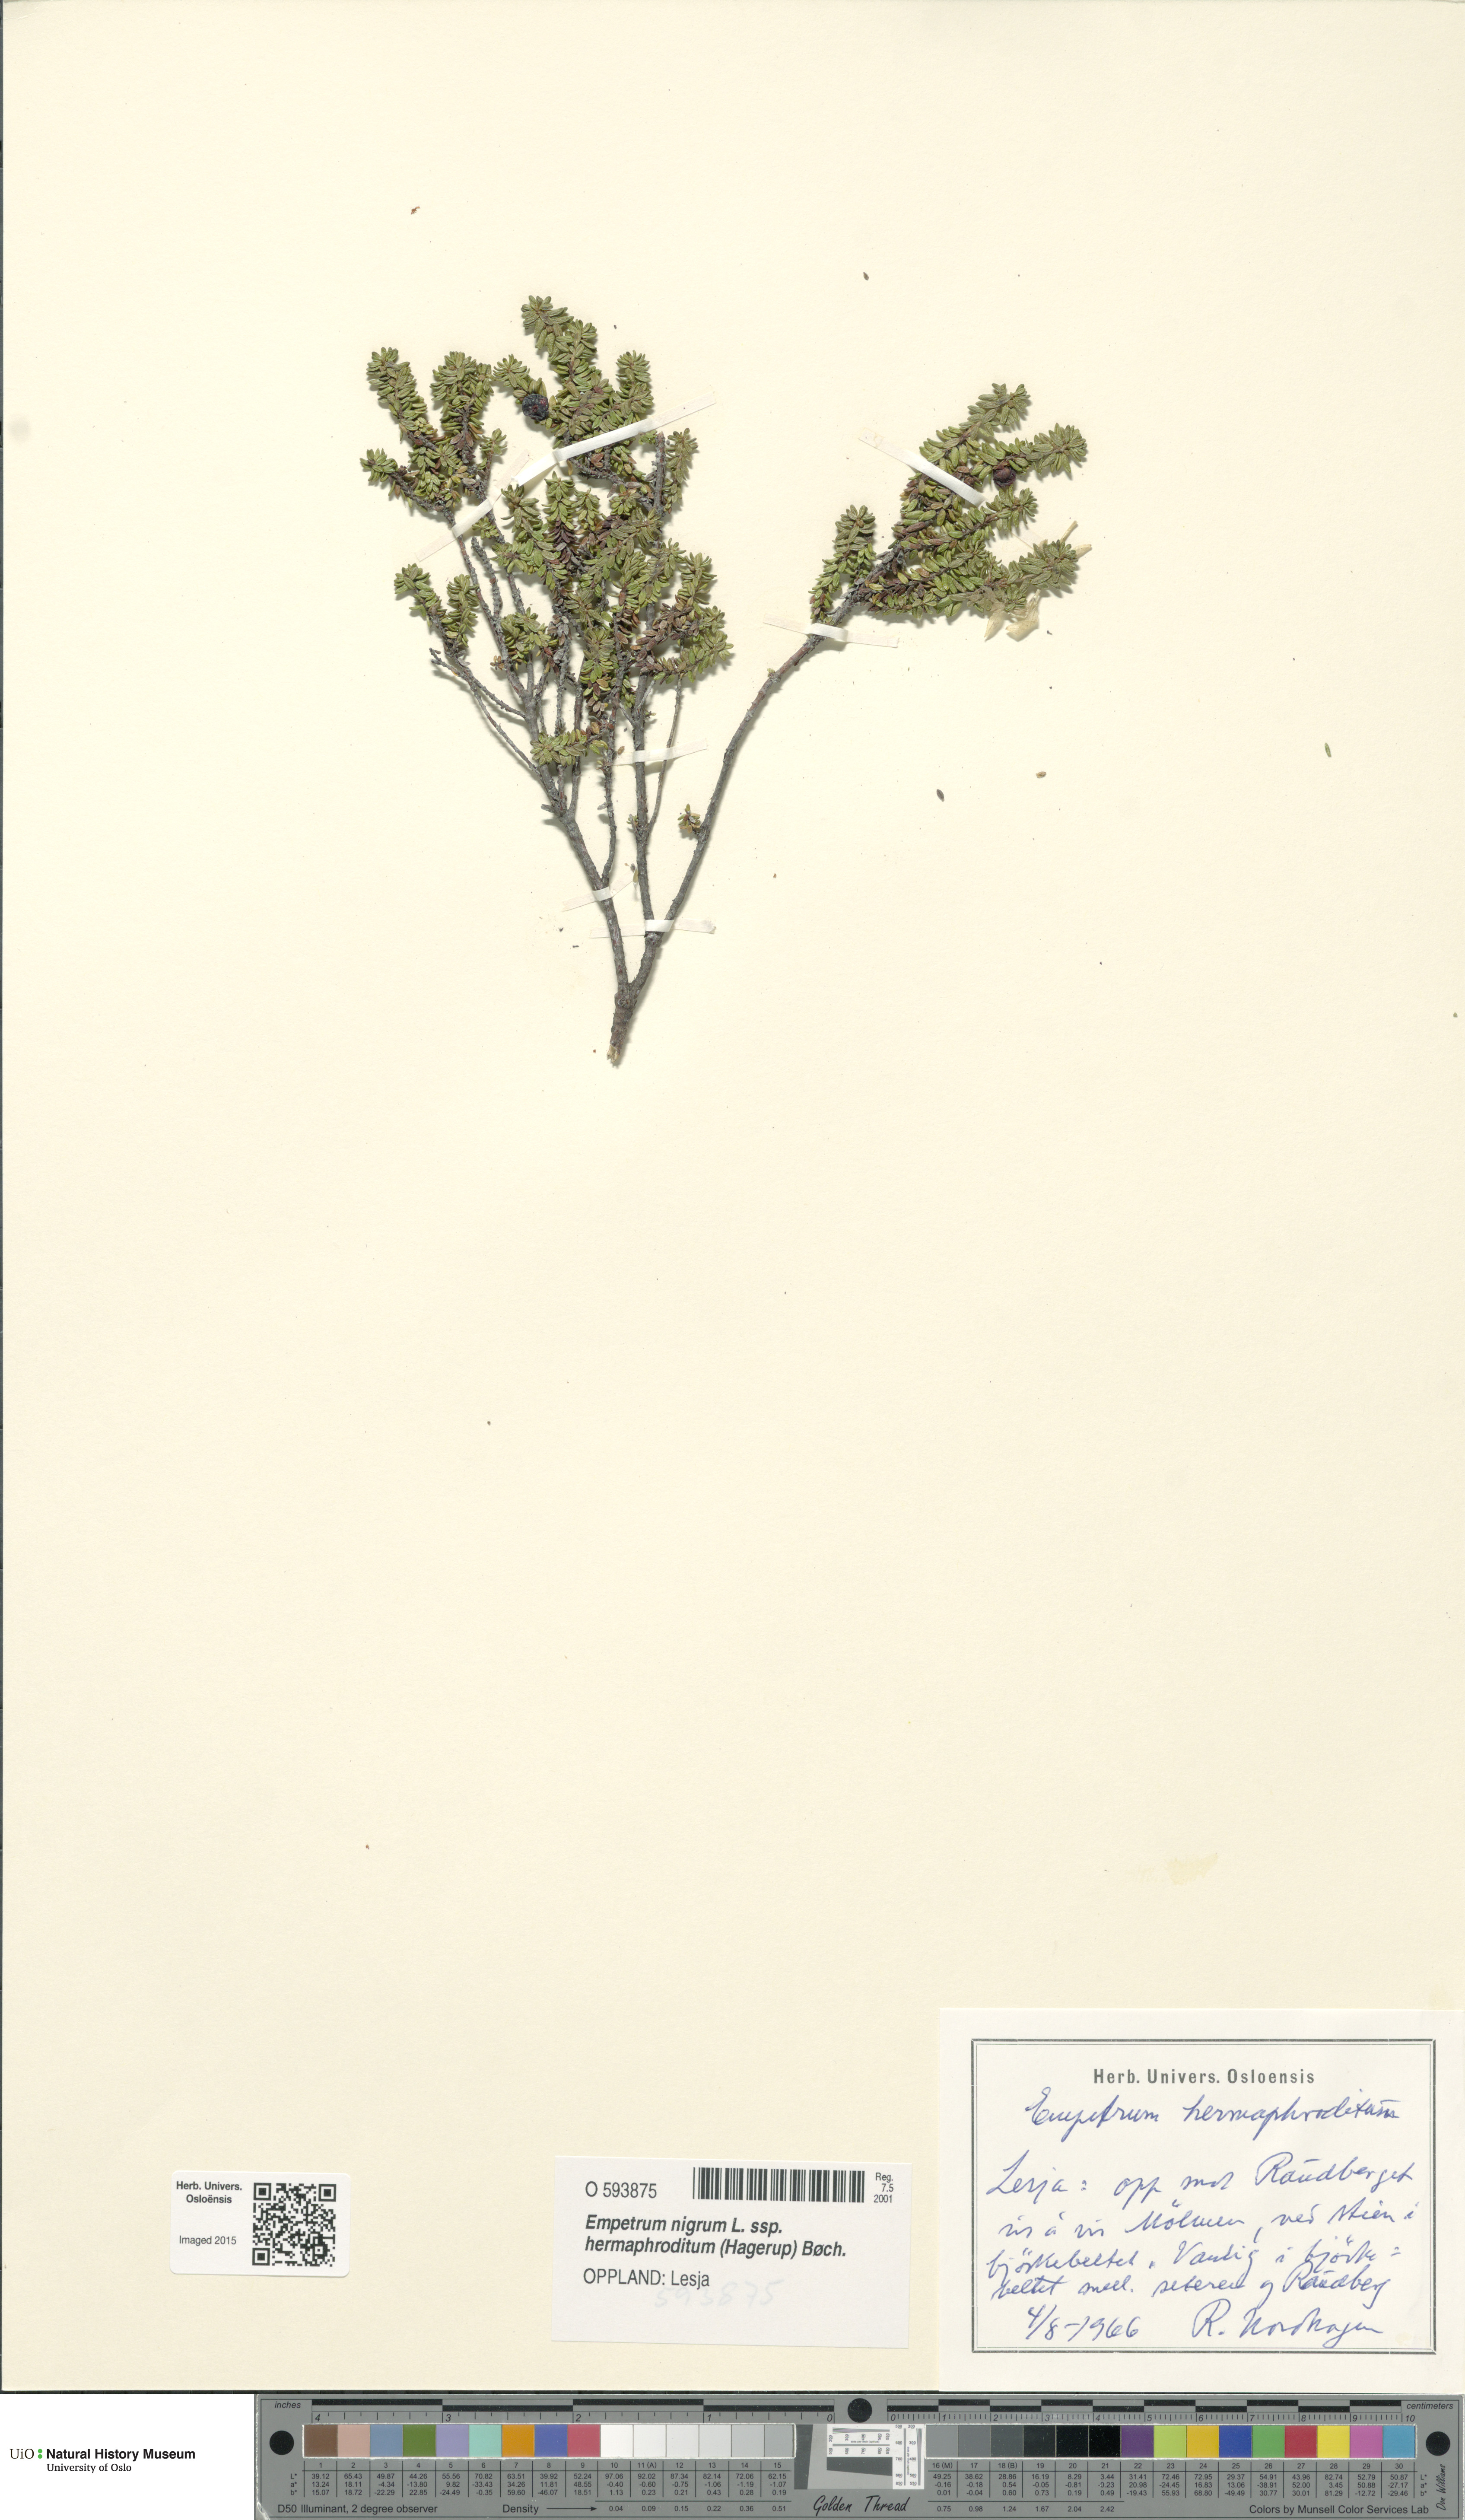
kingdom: Plantae
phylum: Tracheophyta
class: Magnoliopsida
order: Ericales
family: Ericaceae
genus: Empetrum
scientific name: Empetrum hermaphroditum
